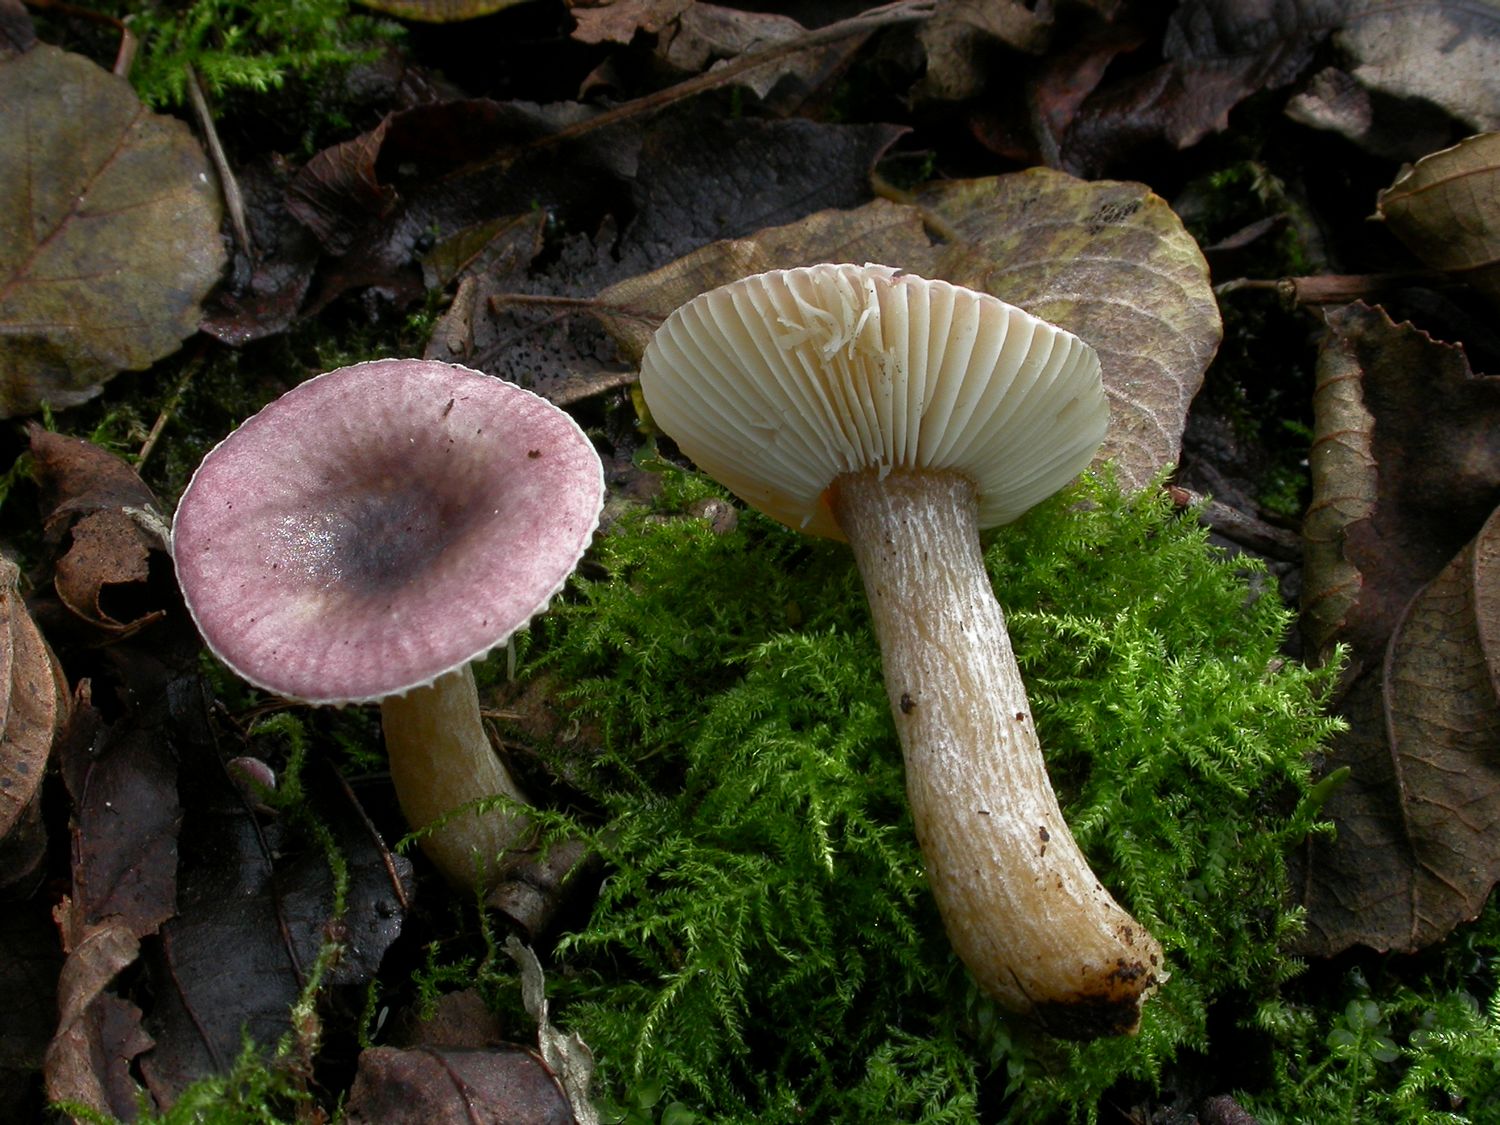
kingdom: Fungi
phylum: Basidiomycota
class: Agaricomycetes
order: Russulales
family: Russulaceae
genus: Russula
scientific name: Russula alnetorum
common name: elle-skørhat
